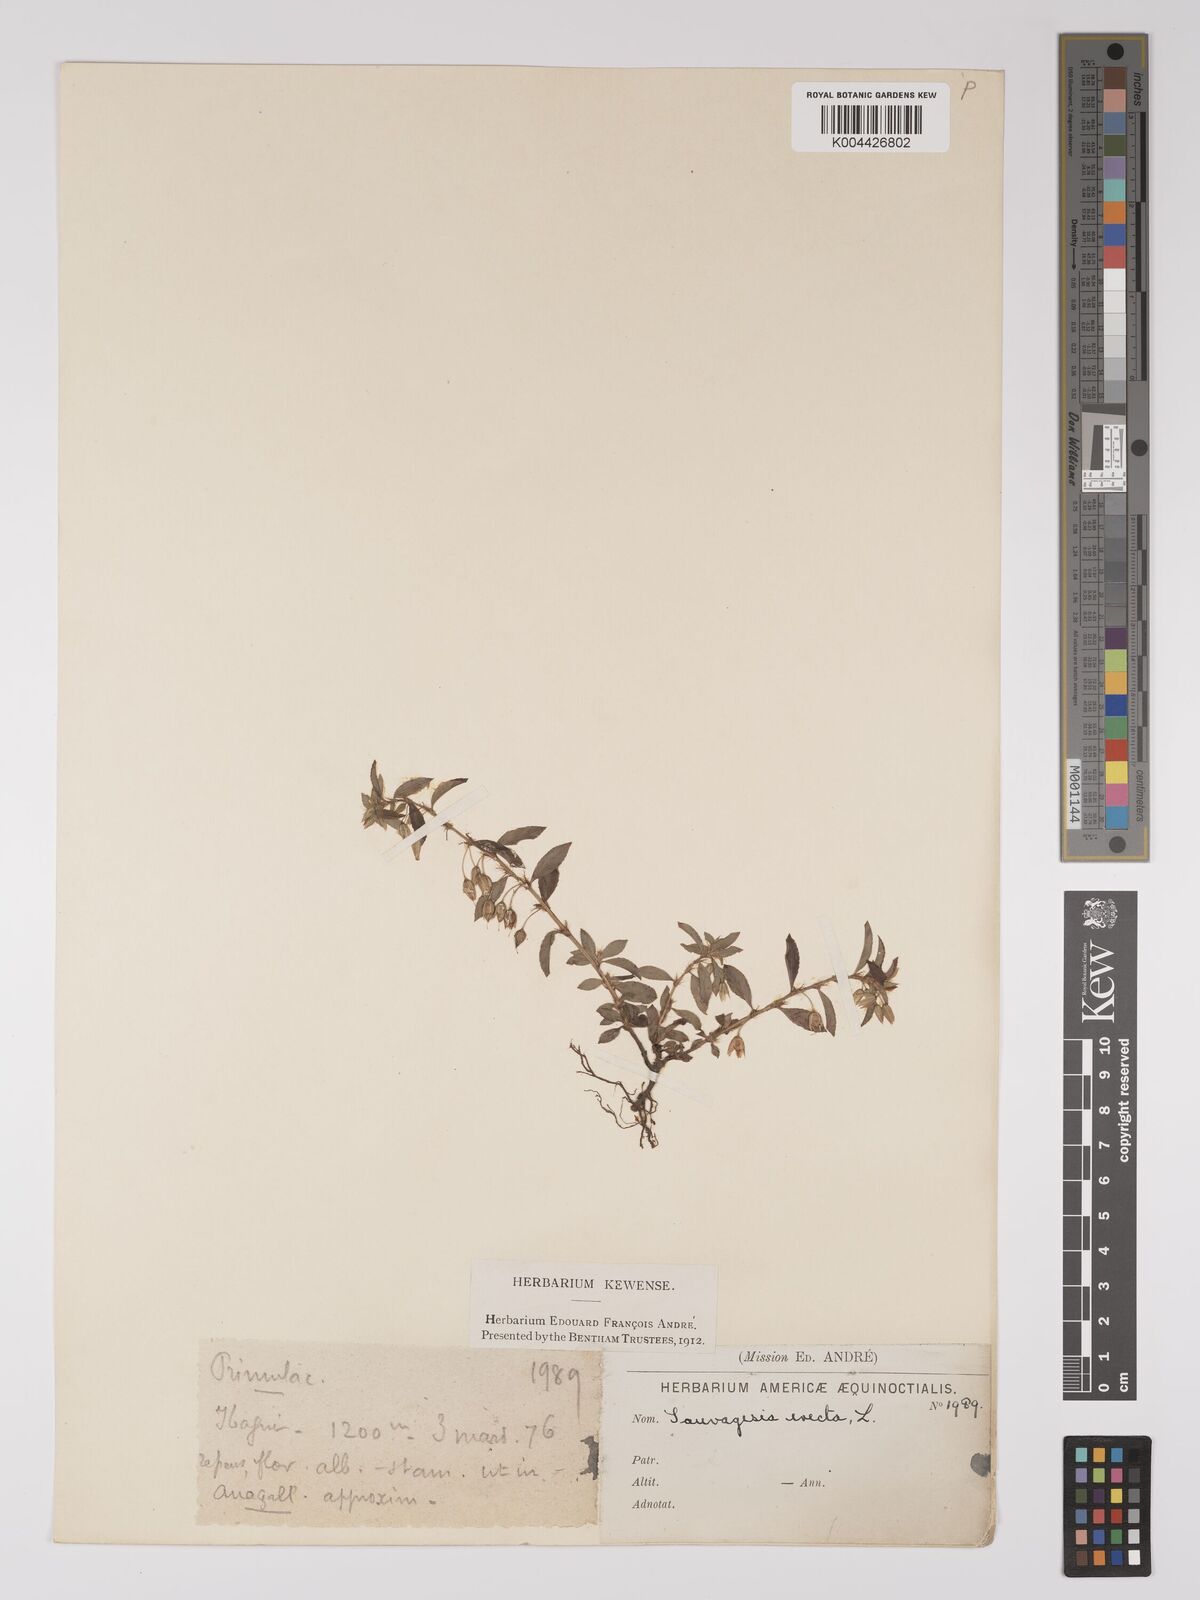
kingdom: Plantae
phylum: Tracheophyta
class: Magnoliopsida
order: Malpighiales
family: Ochnaceae
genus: Sauvagesia
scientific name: Sauvagesia erecta
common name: Creole tea
